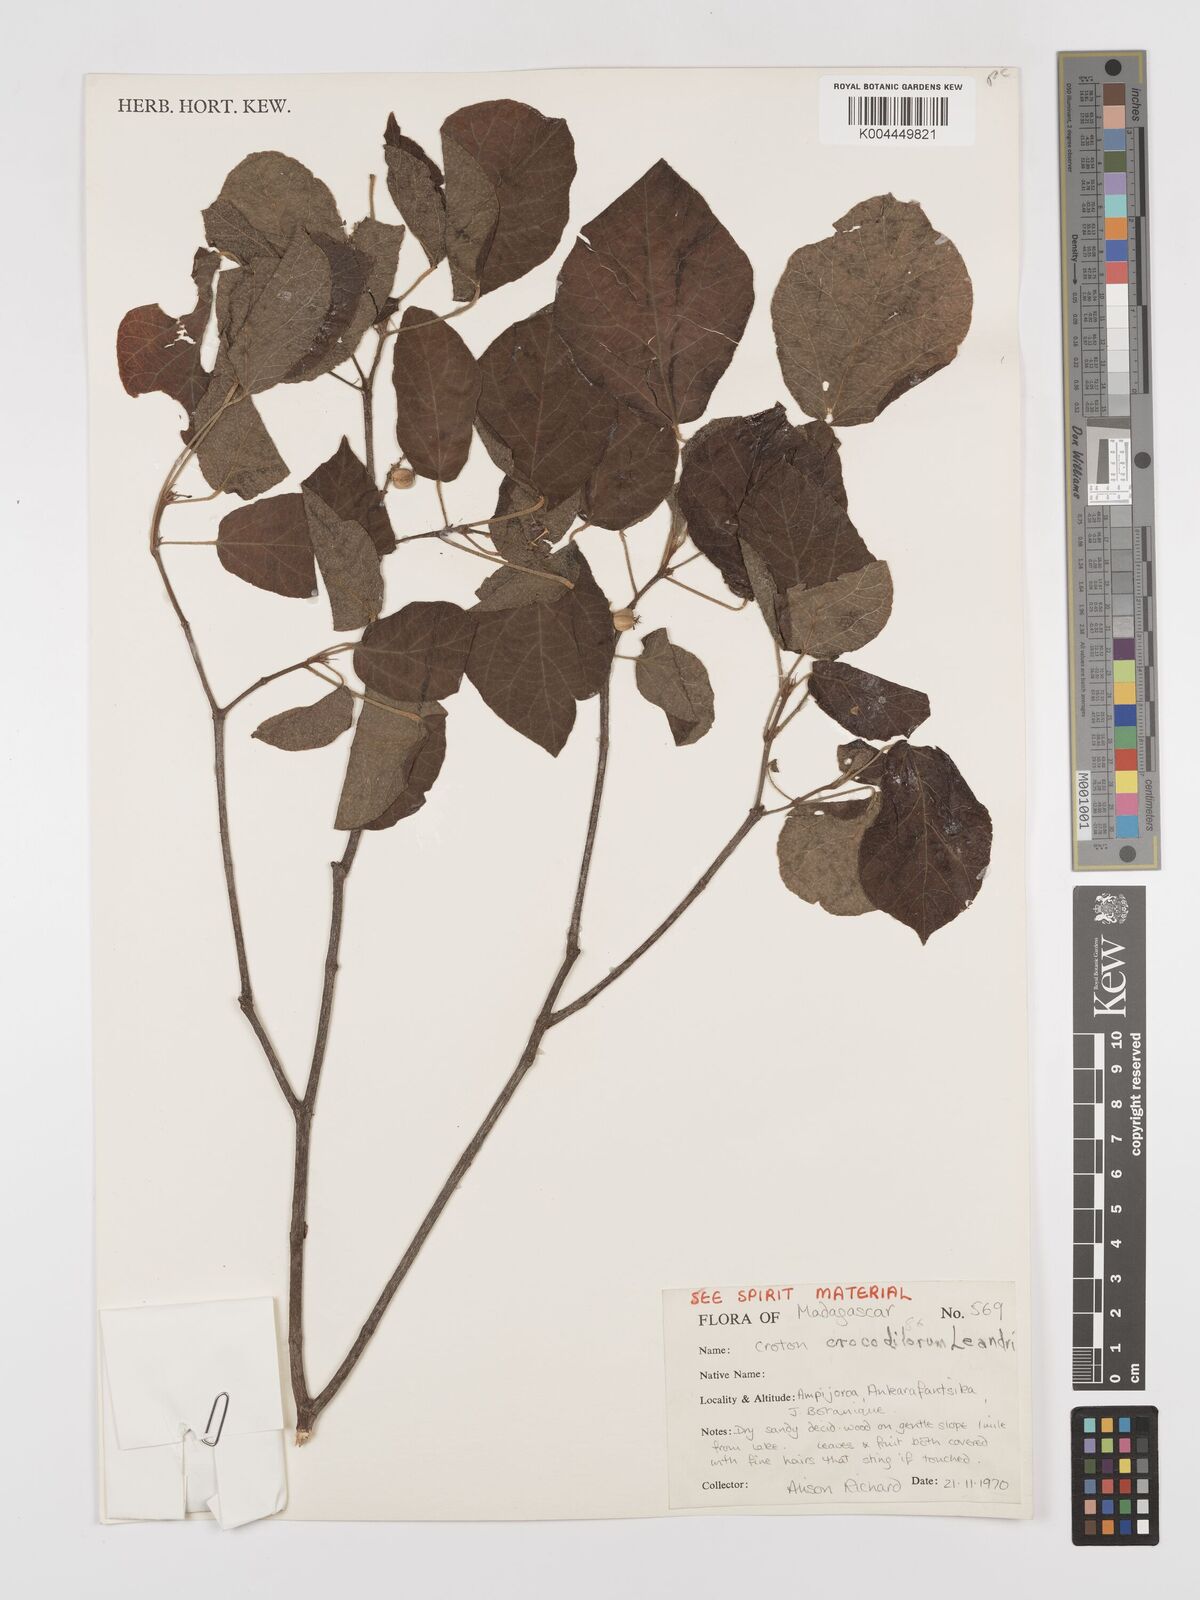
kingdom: Plantae
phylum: Tracheophyta
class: Magnoliopsida
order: Malpighiales
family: Euphorbiaceae
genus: Croton
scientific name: Croton crocodilorum
